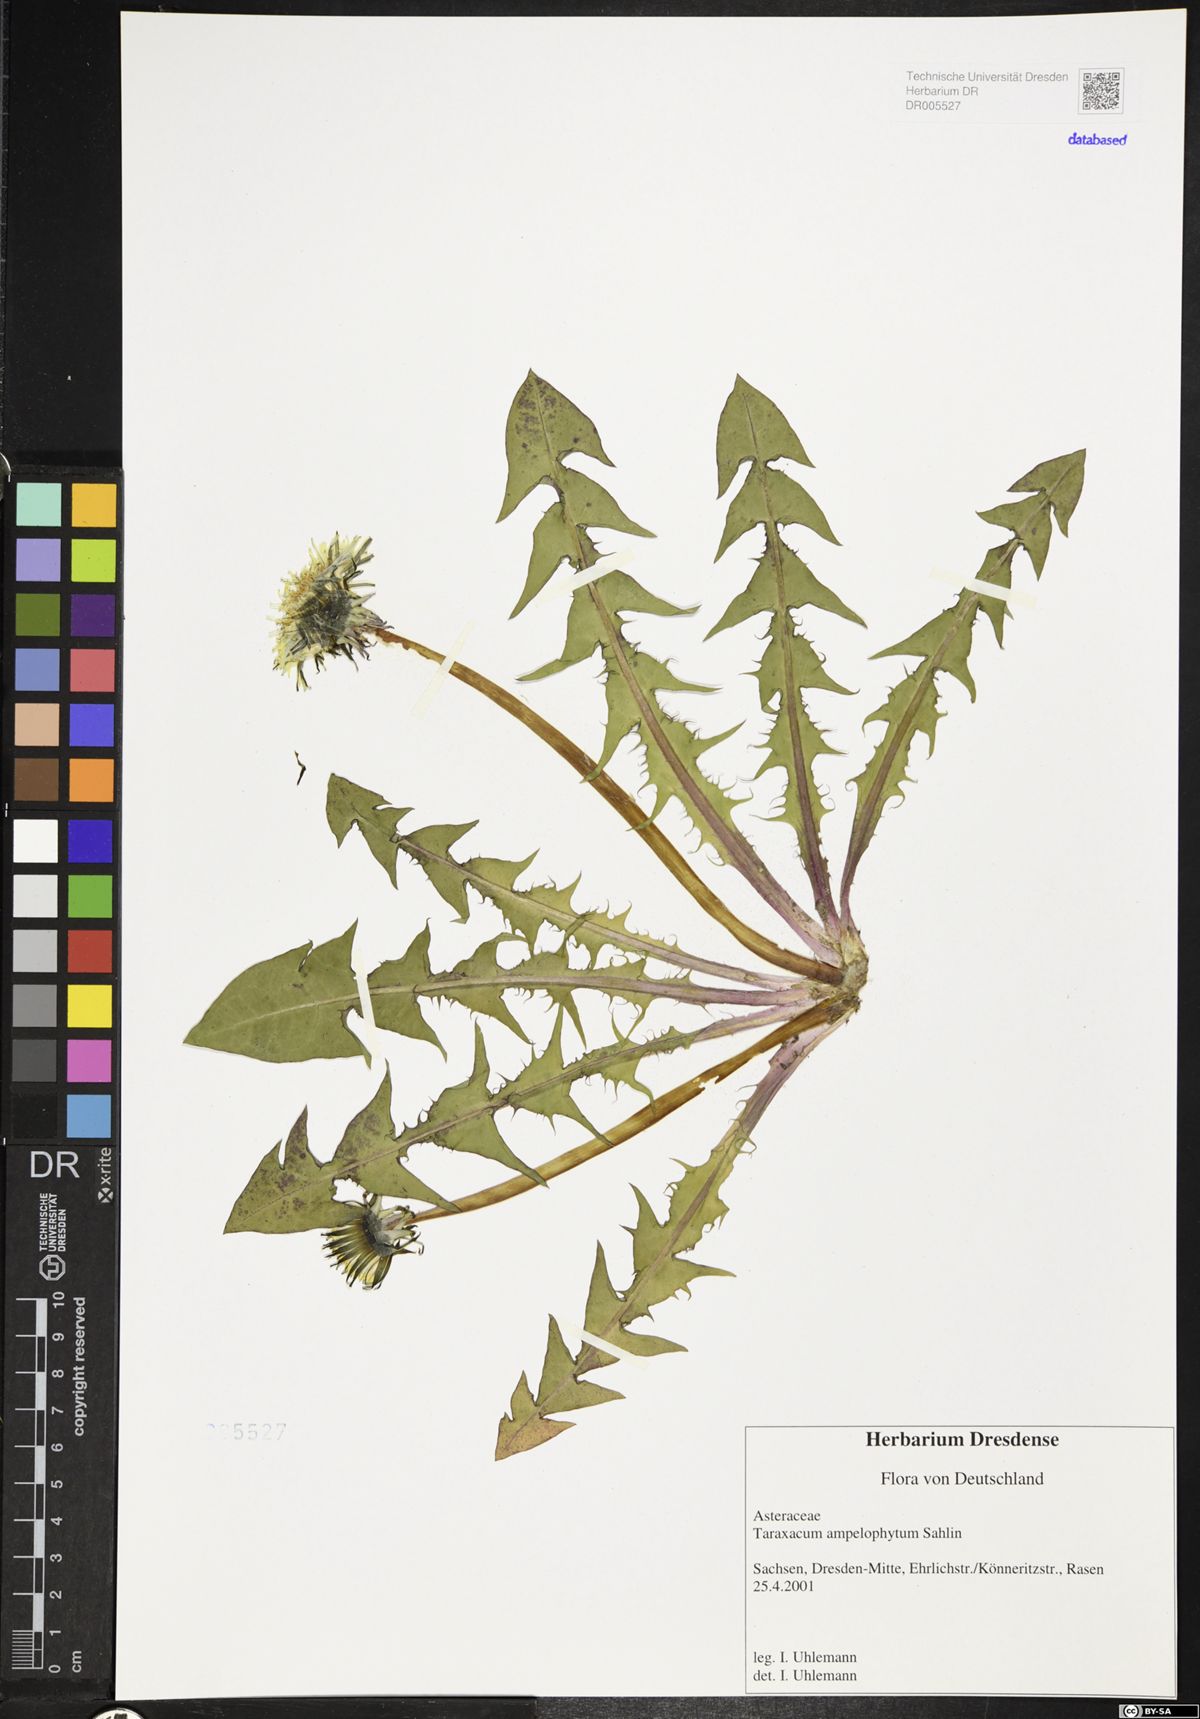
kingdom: Plantae
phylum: Tracheophyta
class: Magnoliopsida
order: Asterales
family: Asteraceae
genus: Taraxacum
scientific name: Taraxacum debrayi
